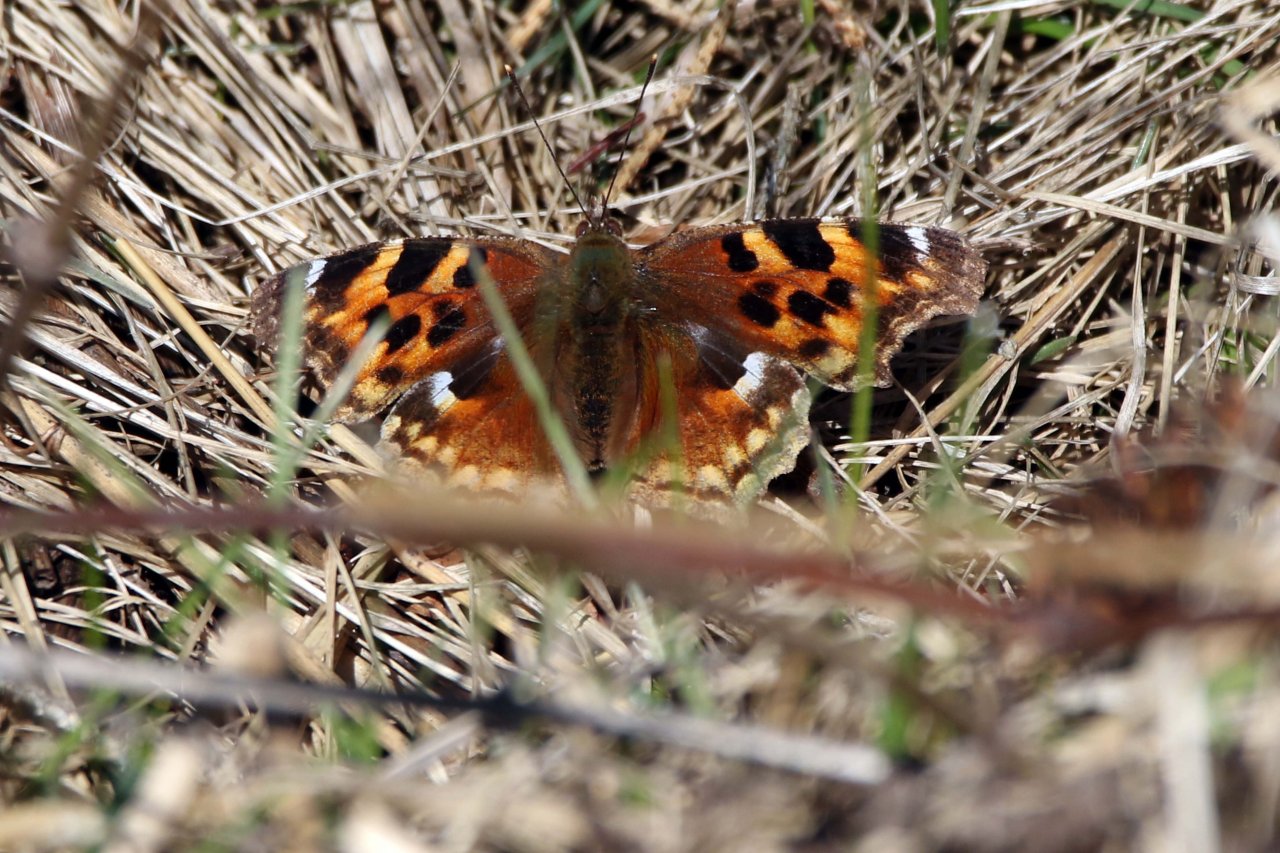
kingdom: Animalia
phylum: Arthropoda
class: Insecta
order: Lepidoptera
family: Nymphalidae
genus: Polygonia
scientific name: Polygonia vaualbum
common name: Compton Tortoiseshell
